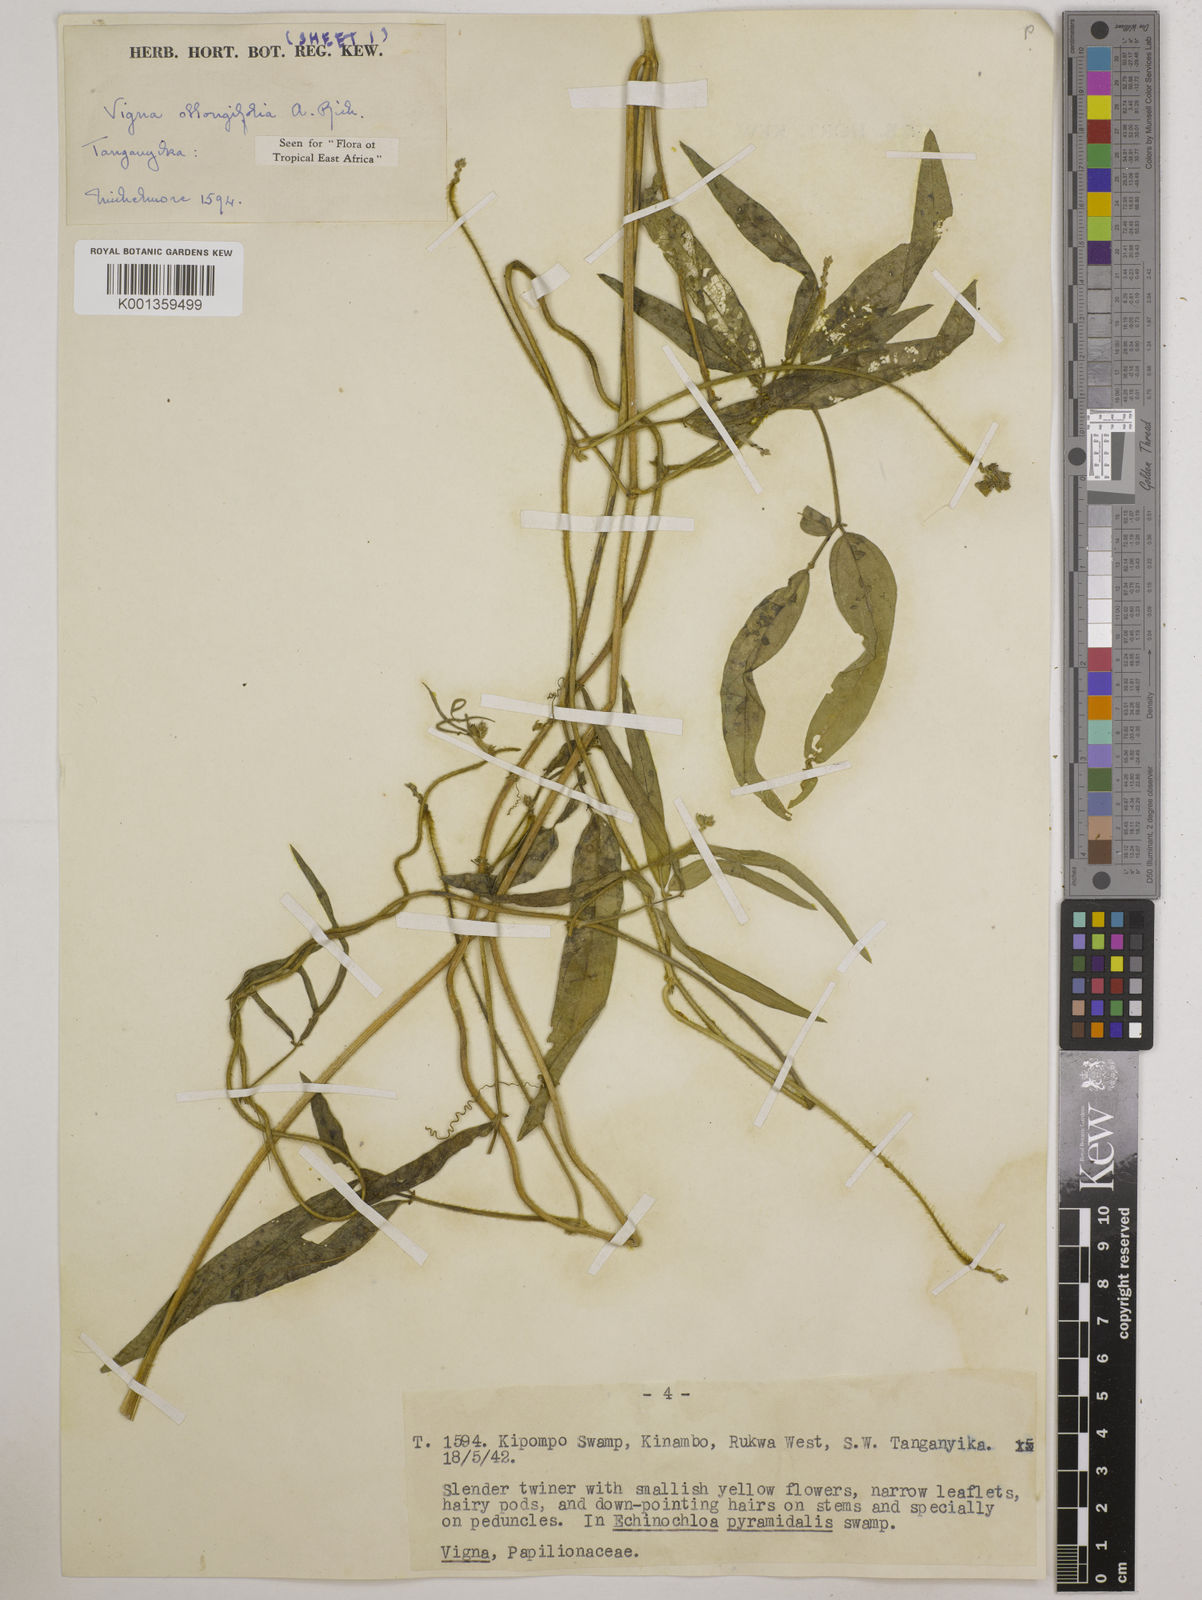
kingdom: Plantae
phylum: Tracheophyta
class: Magnoliopsida
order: Fabales
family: Fabaceae
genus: Vigna
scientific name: Vigna oblongifolia
